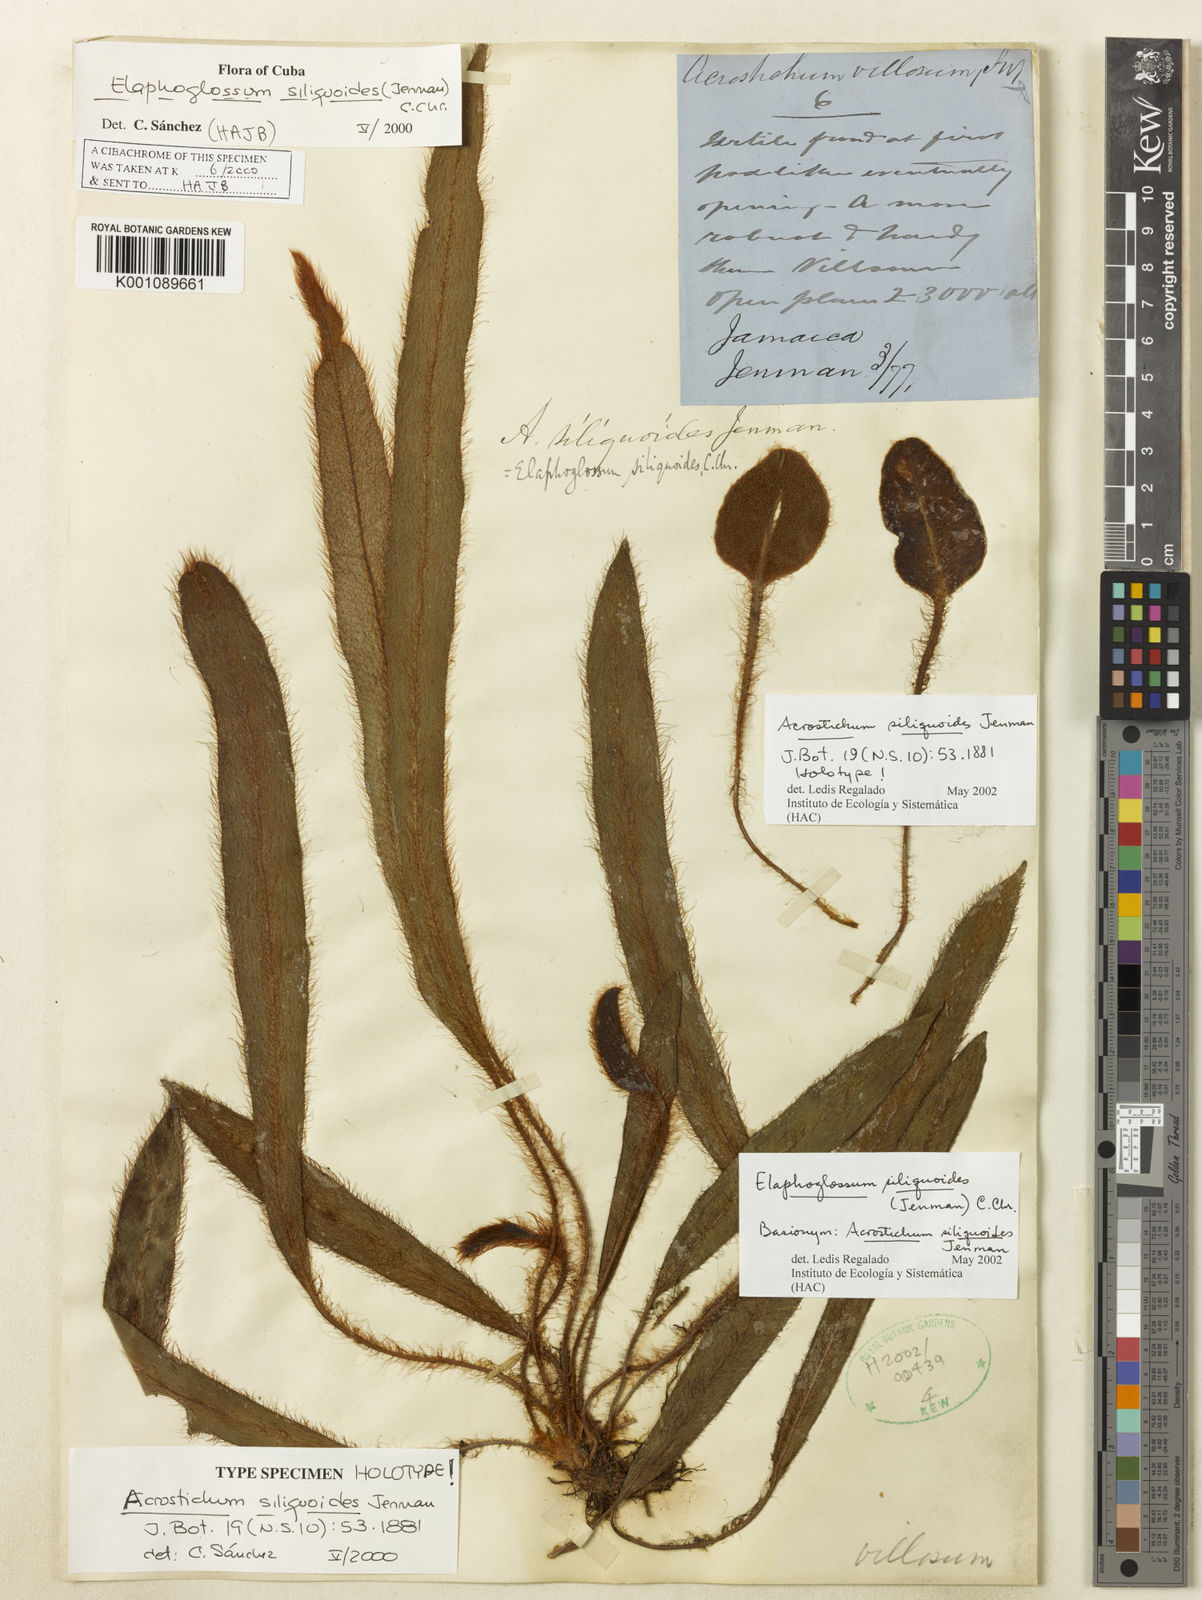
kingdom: Plantae
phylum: Tracheophyta
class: Polypodiopsida
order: Polypodiales
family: Dryopteridaceae
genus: Elaphoglossum
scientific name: Elaphoglossum siliquoides
